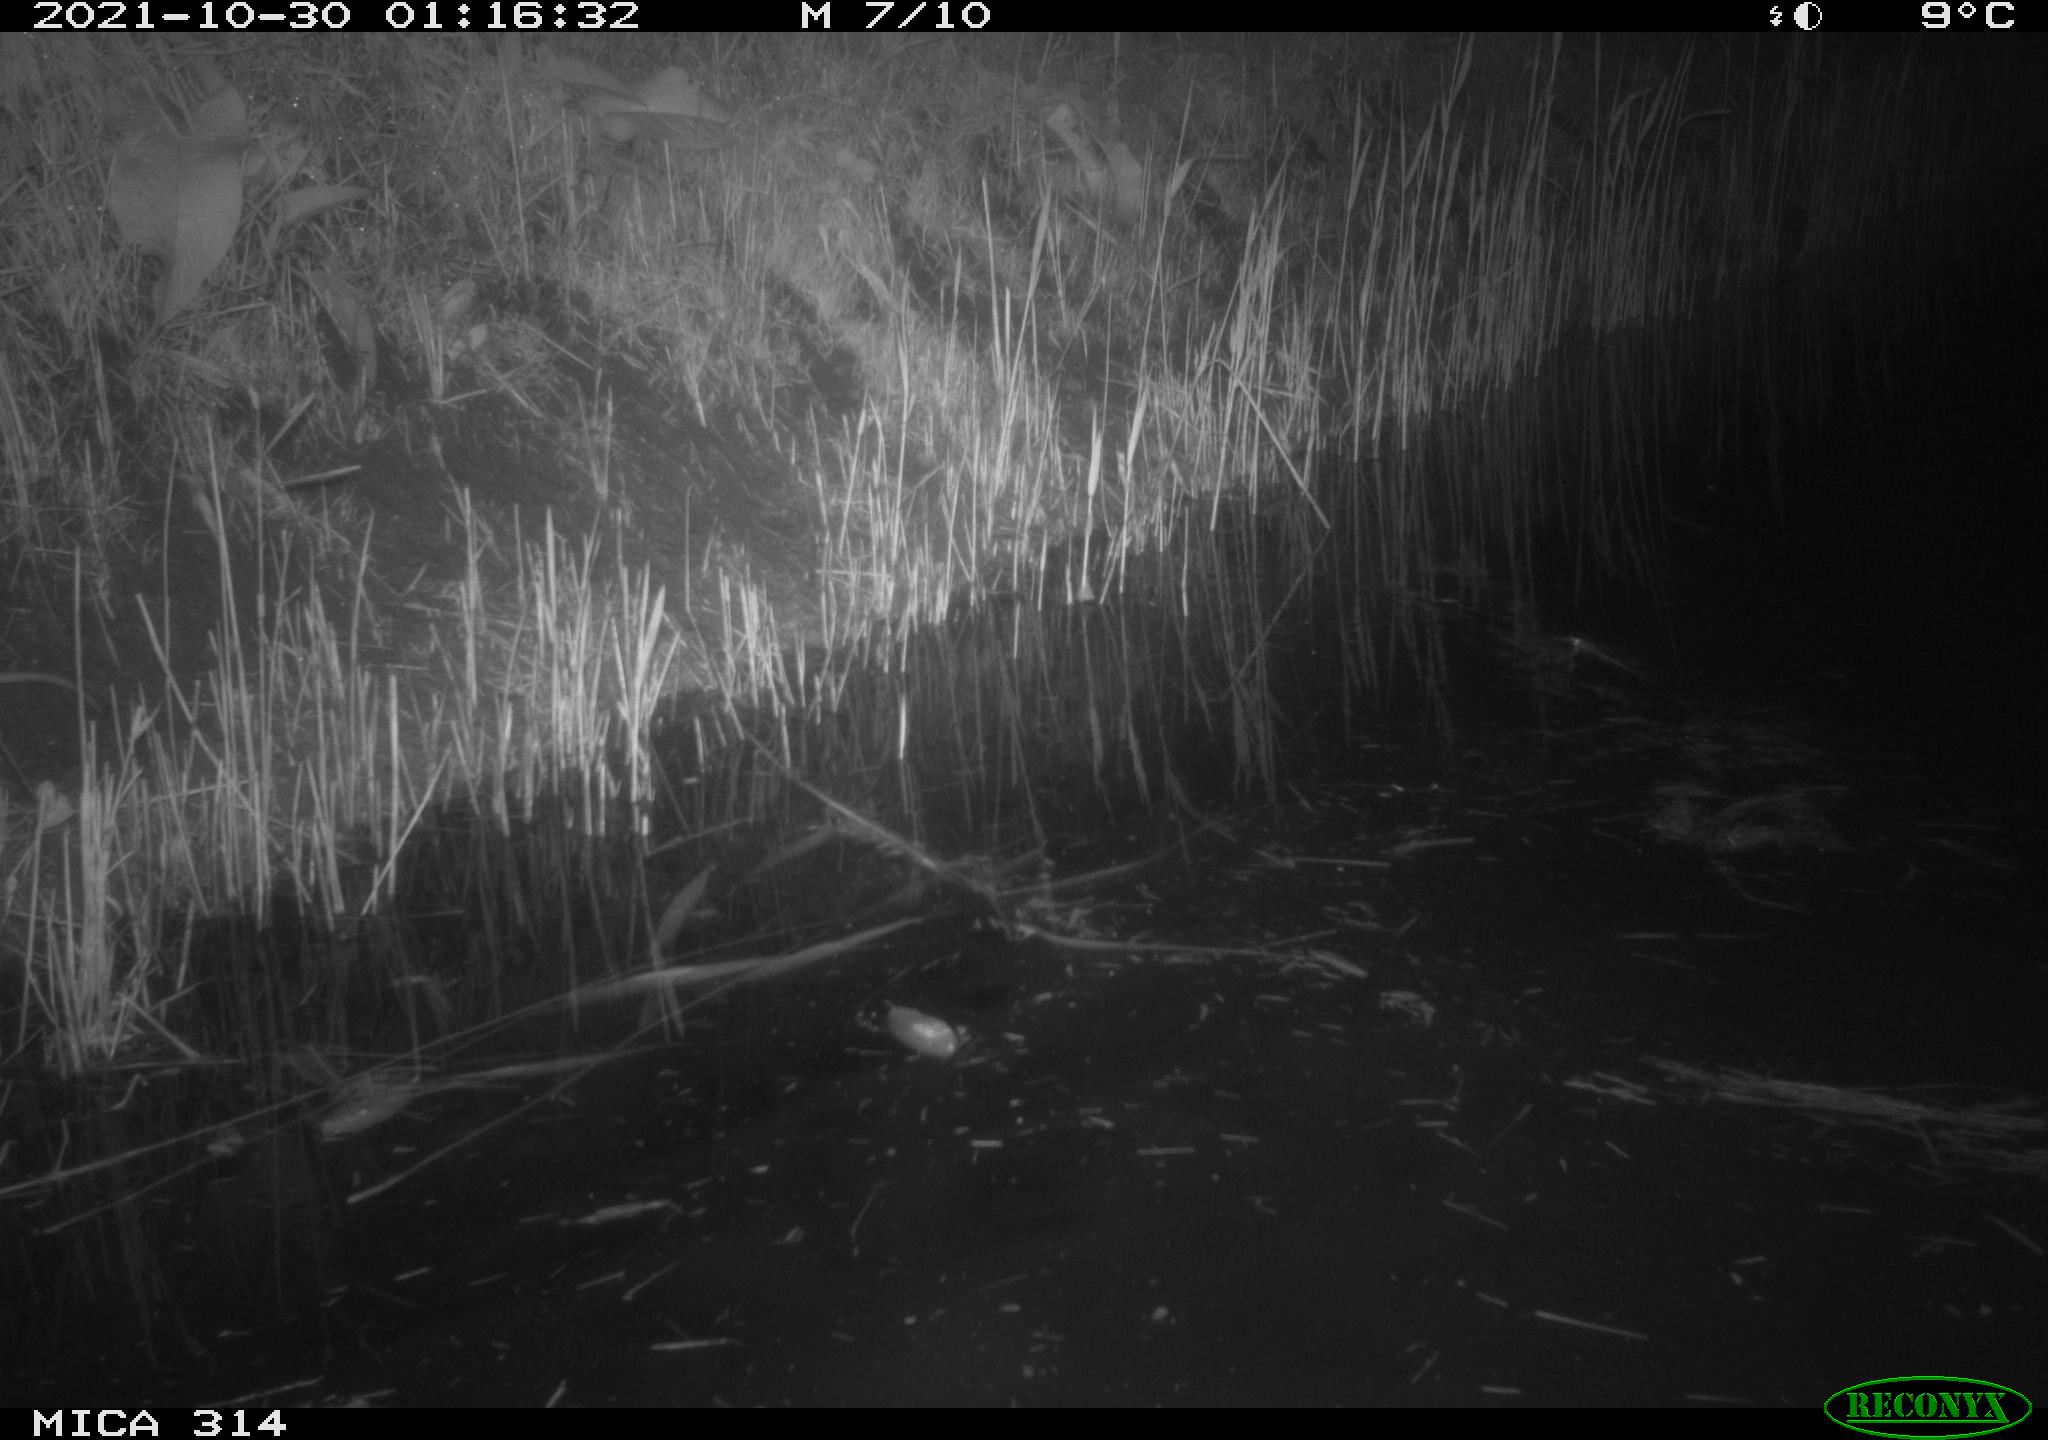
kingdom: Animalia
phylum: Chordata
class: Mammalia
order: Rodentia
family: Muridae
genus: Rattus
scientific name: Rattus norvegicus
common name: Brown rat
